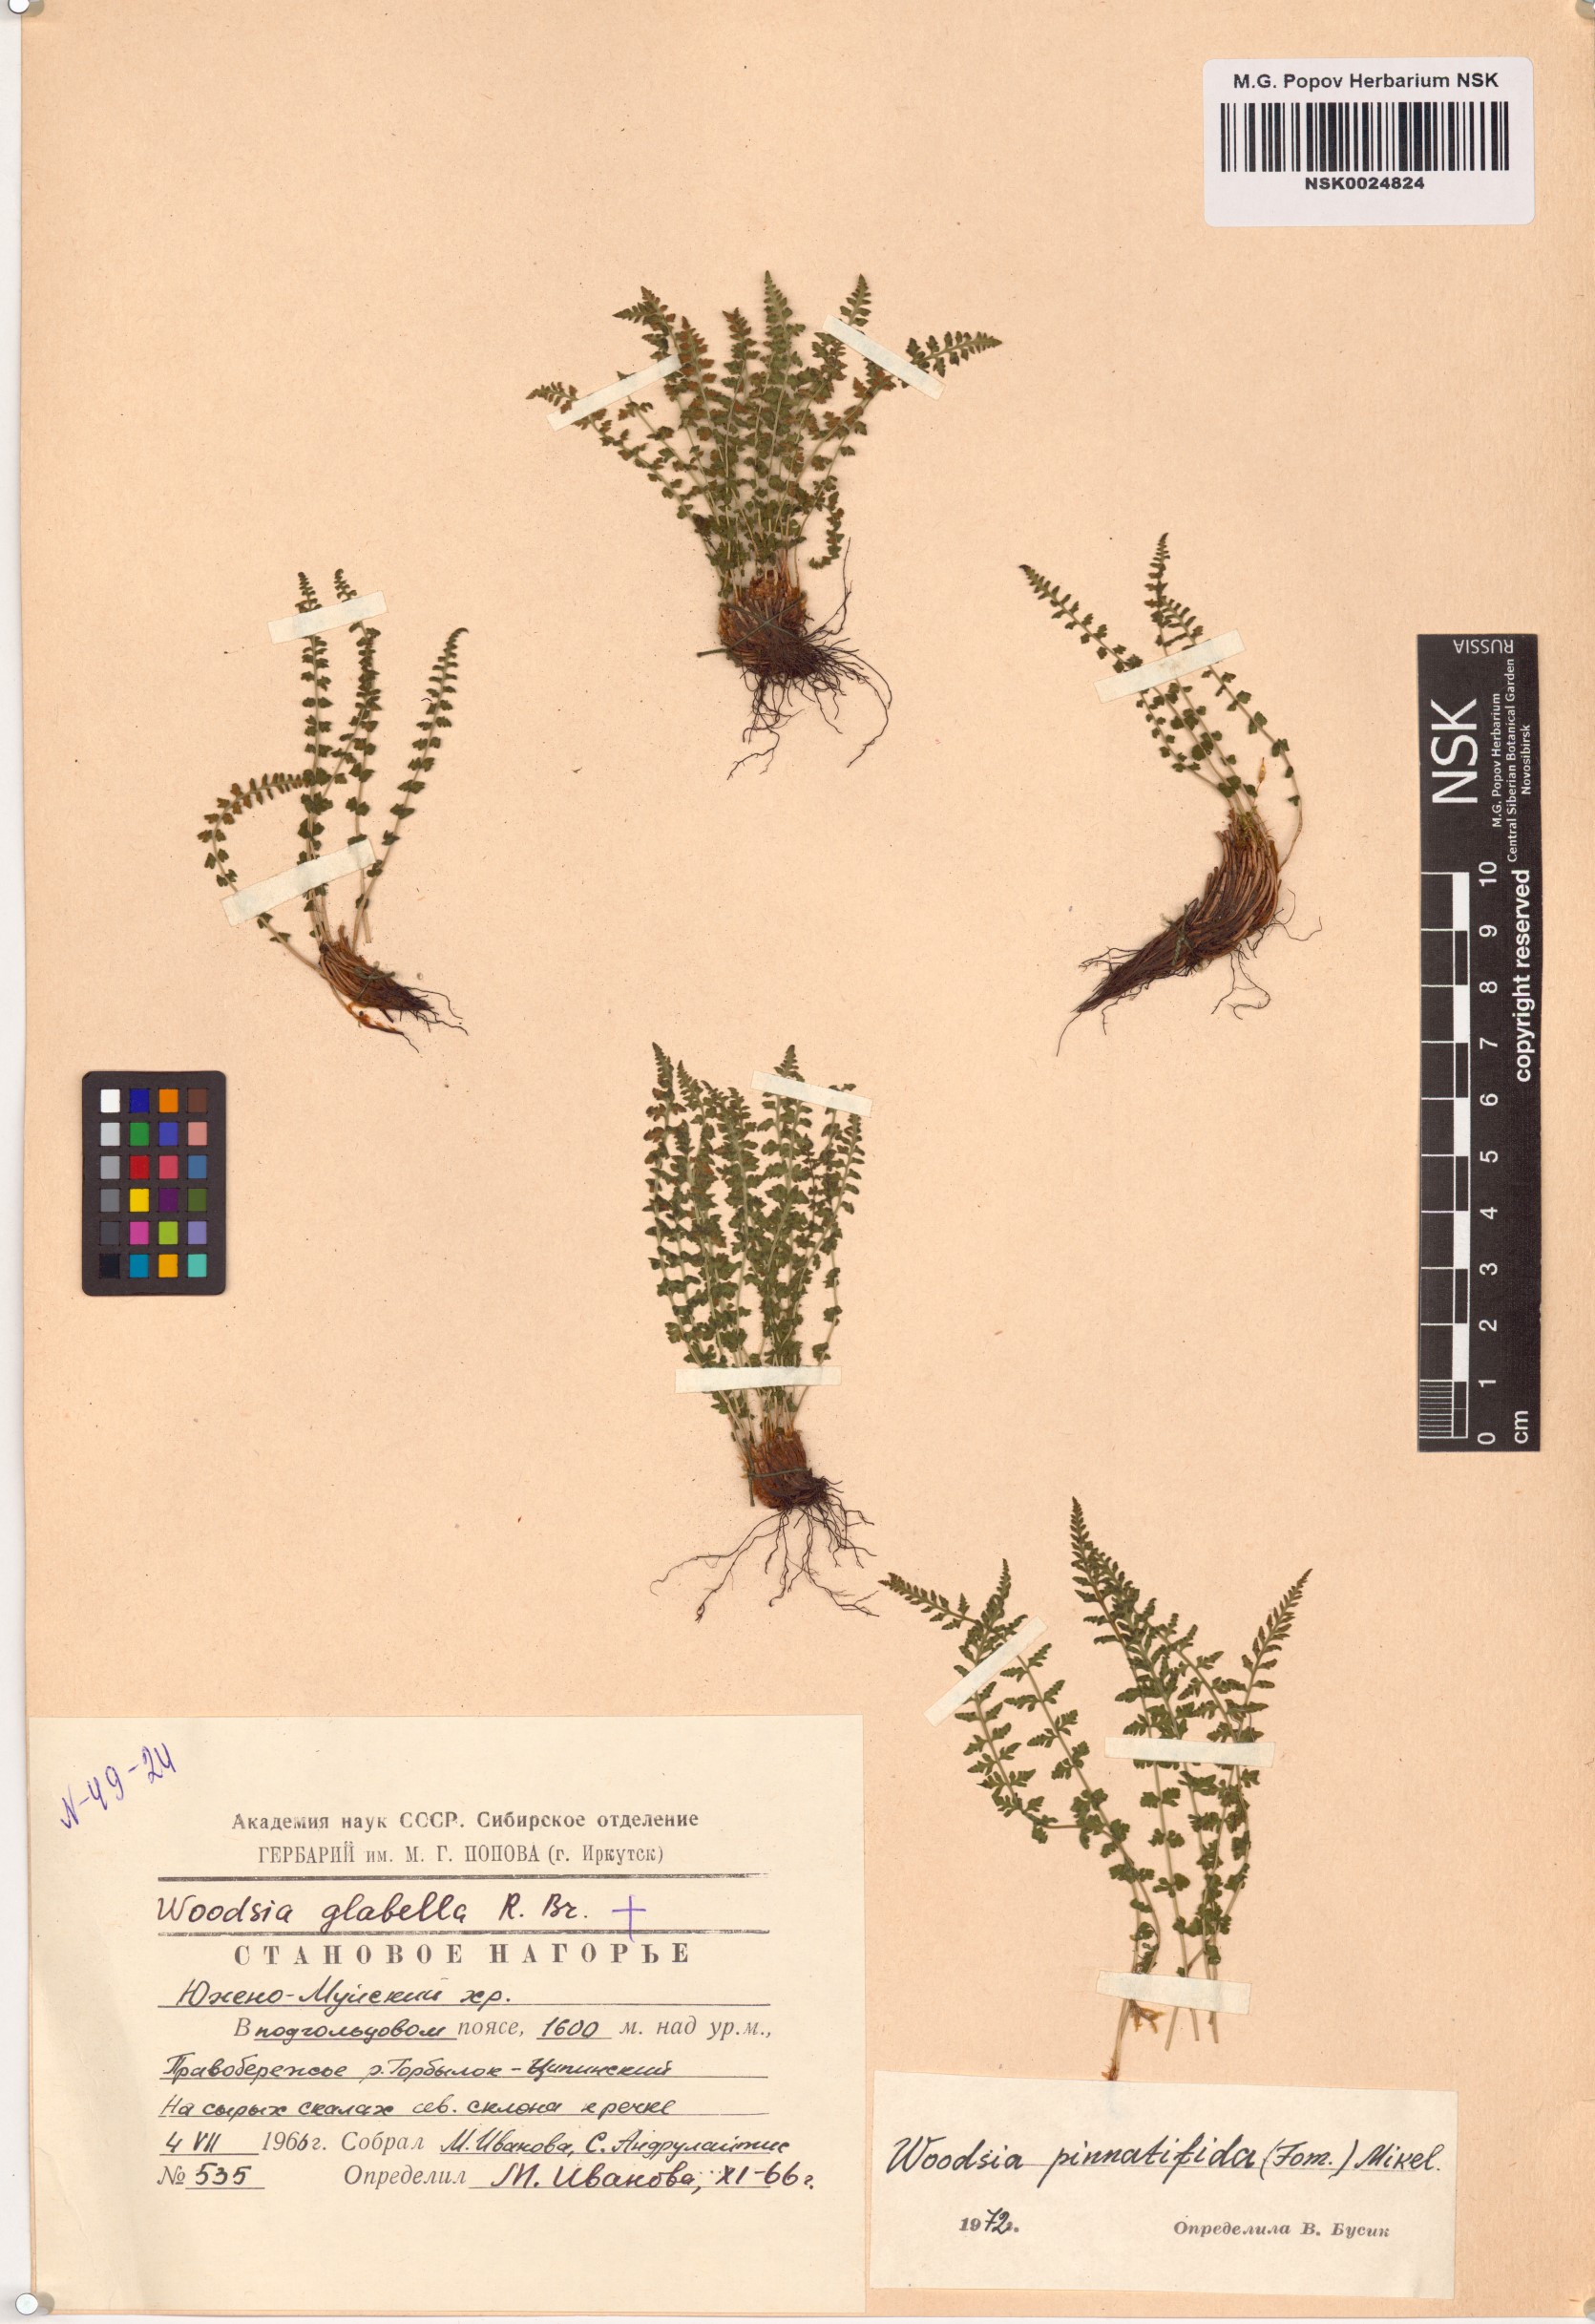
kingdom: Plantae
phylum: Tracheophyta
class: Polypodiopsida
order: Polypodiales
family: Woodsiaceae
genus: Woodsia
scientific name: Woodsia pulchella
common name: Graceful woodsia
